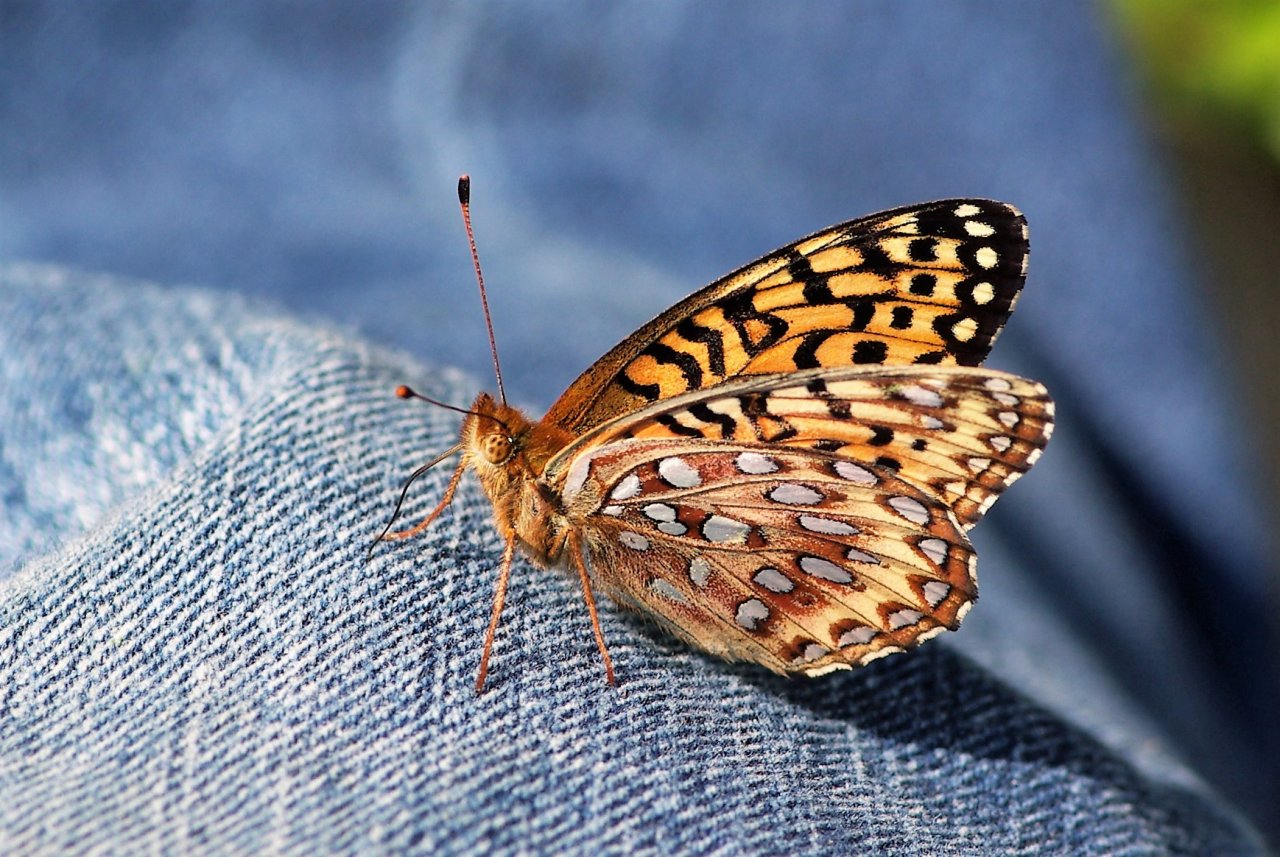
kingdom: Animalia
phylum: Arthropoda
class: Insecta
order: Lepidoptera
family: Nymphalidae
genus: Speyeria
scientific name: Speyeria aphrodite
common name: Aphrodite Fritillary
